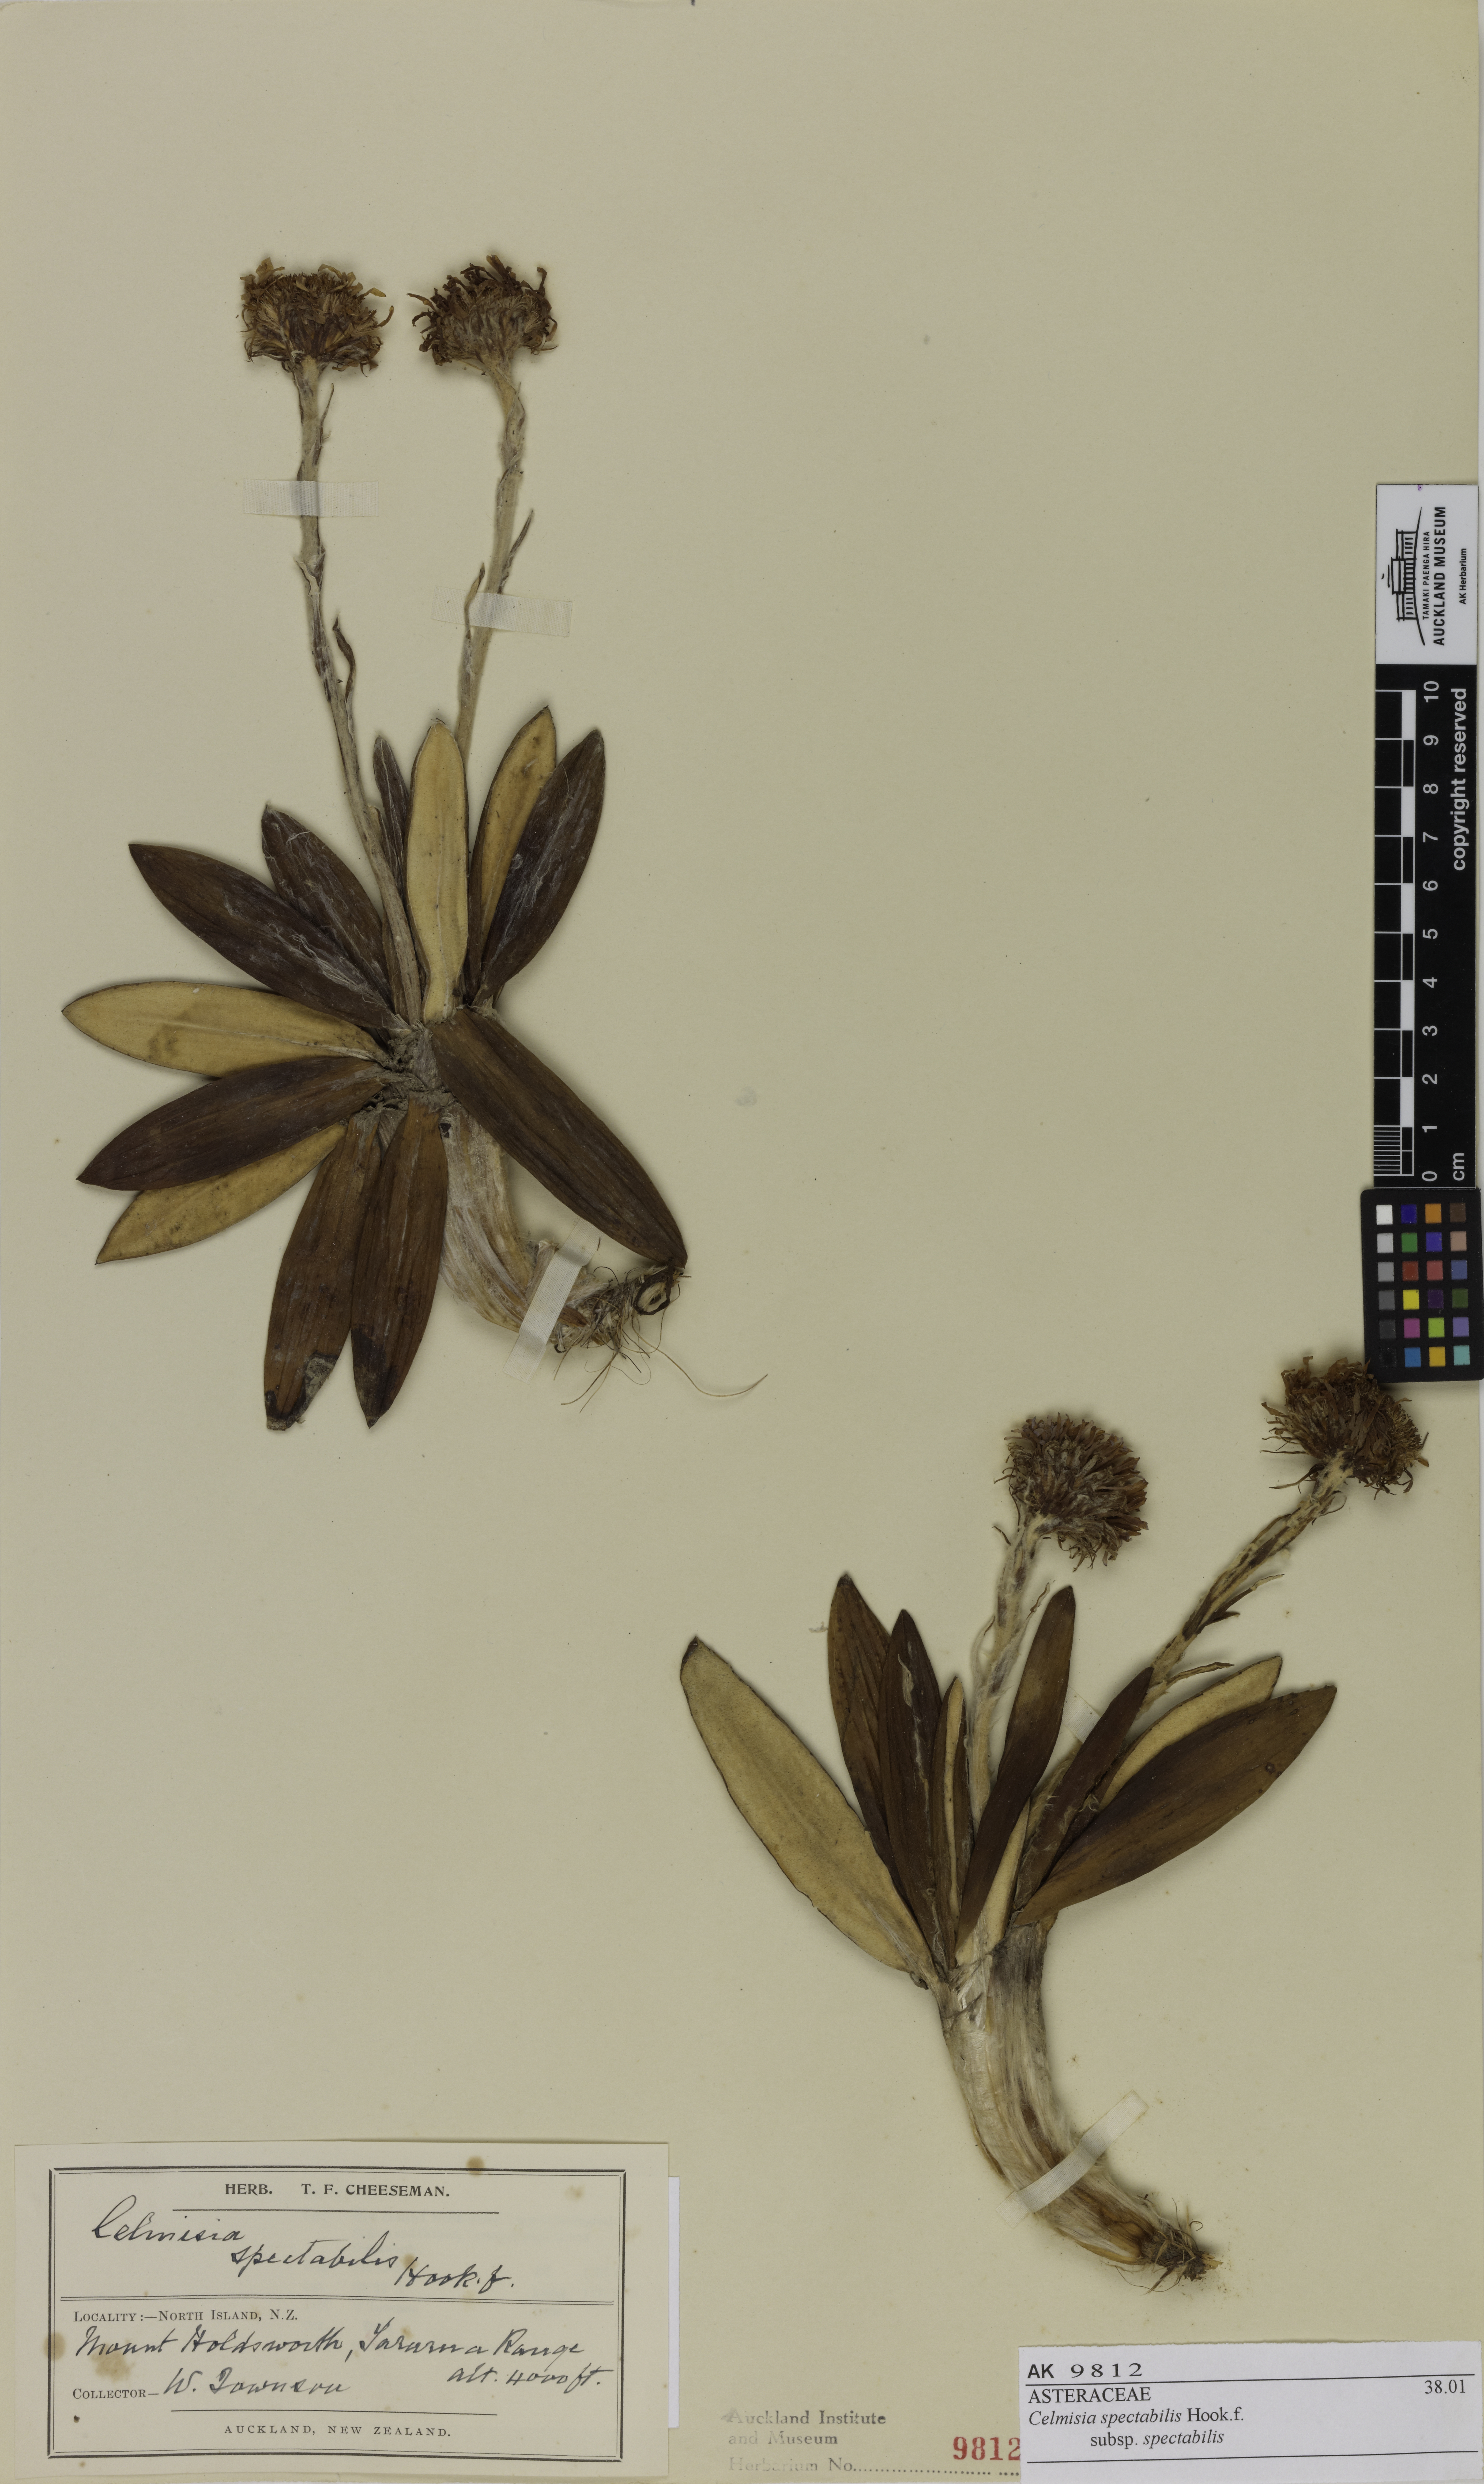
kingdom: Plantae
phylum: Tracheophyta
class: Magnoliopsida
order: Asterales
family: Asteraceae
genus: Celmisia
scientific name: Celmisia spectabilis
